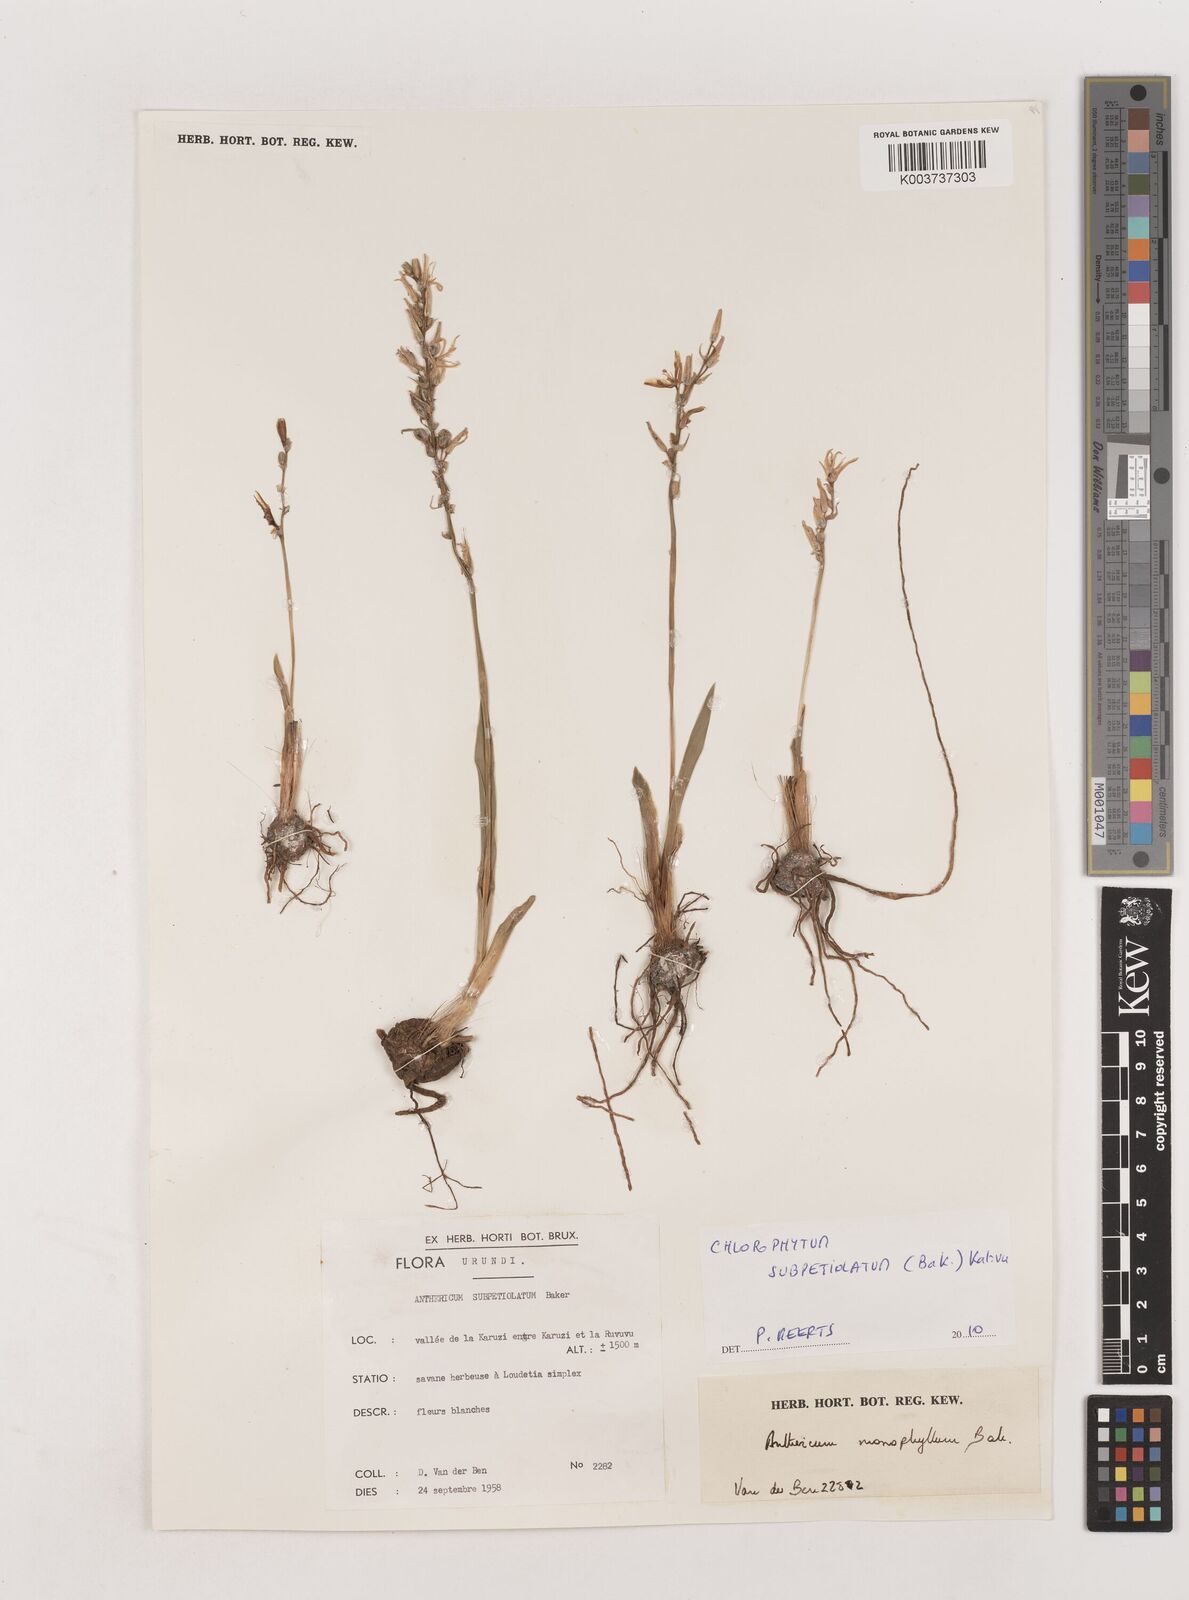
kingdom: Plantae
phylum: Tracheophyta
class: Liliopsida
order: Asparagales
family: Asparagaceae
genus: Chlorophytum
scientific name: Chlorophytum subpetiolatum
